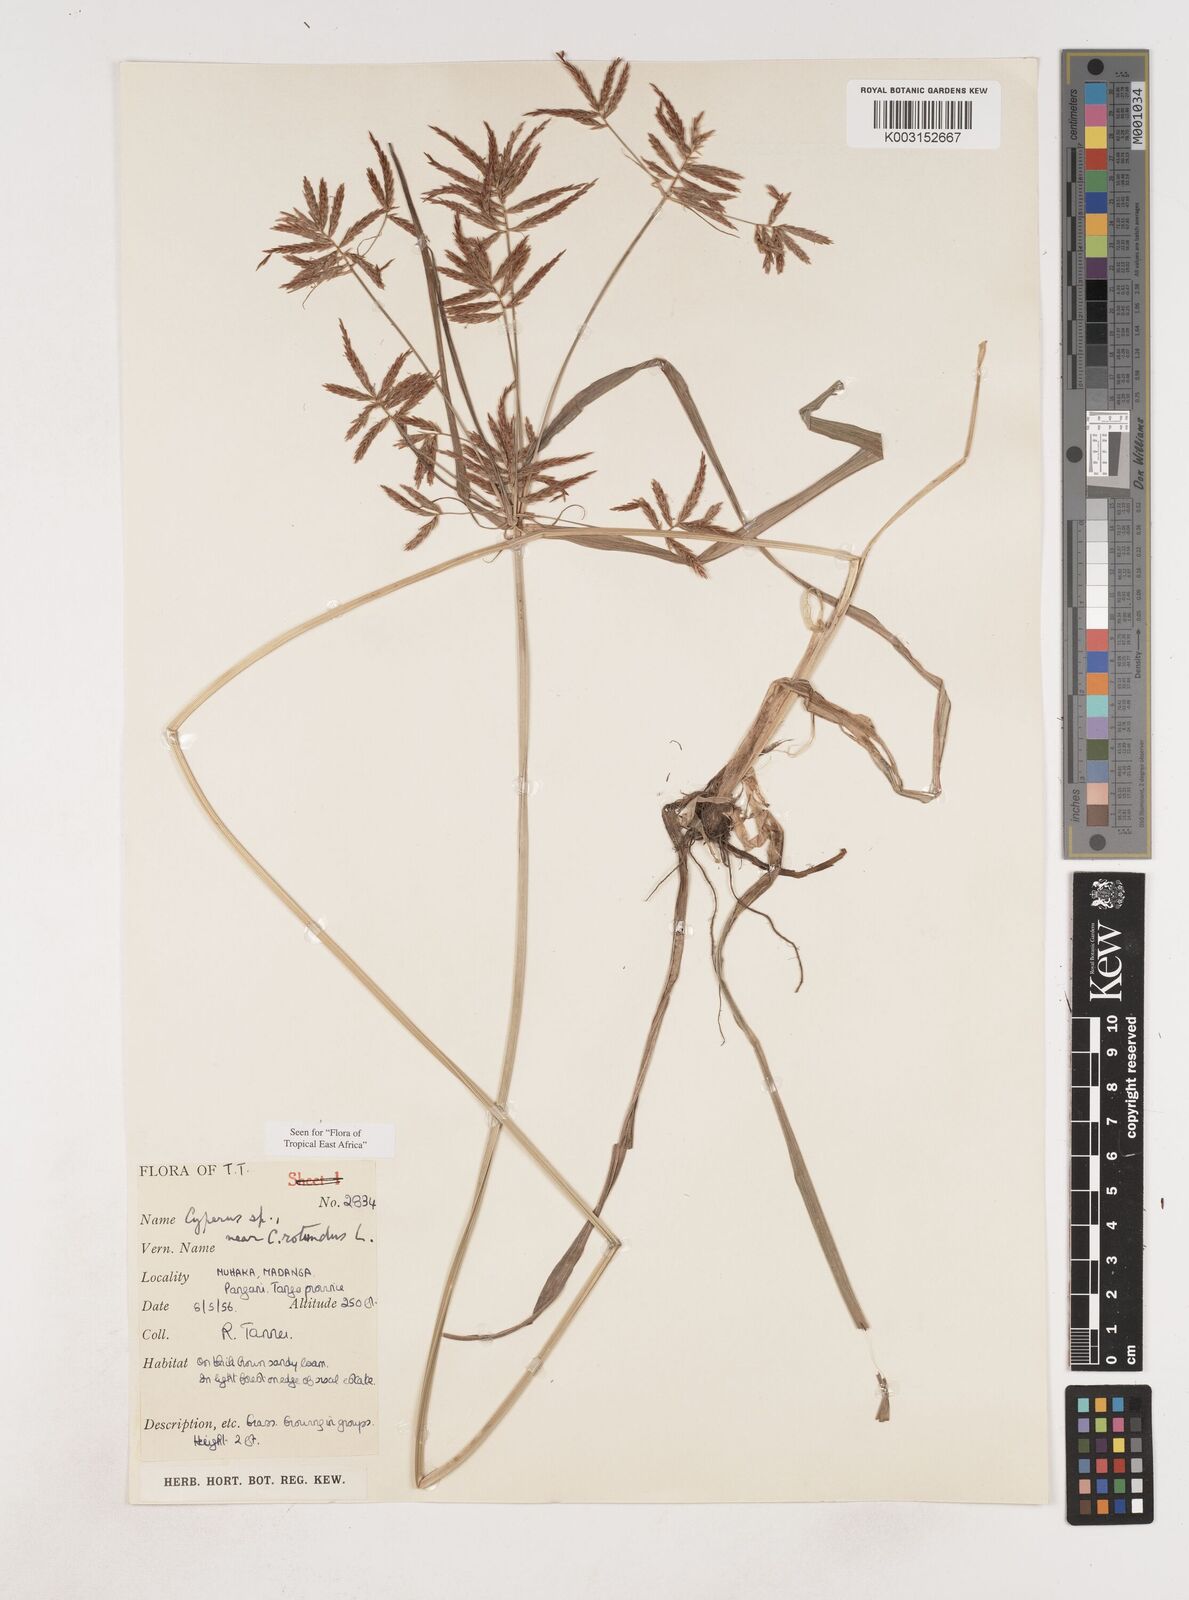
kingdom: Plantae
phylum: Tracheophyta
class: Liliopsida
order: Poales
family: Cyperaceae
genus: Cyperus
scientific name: Cyperus rotundus
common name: Nutgrass
